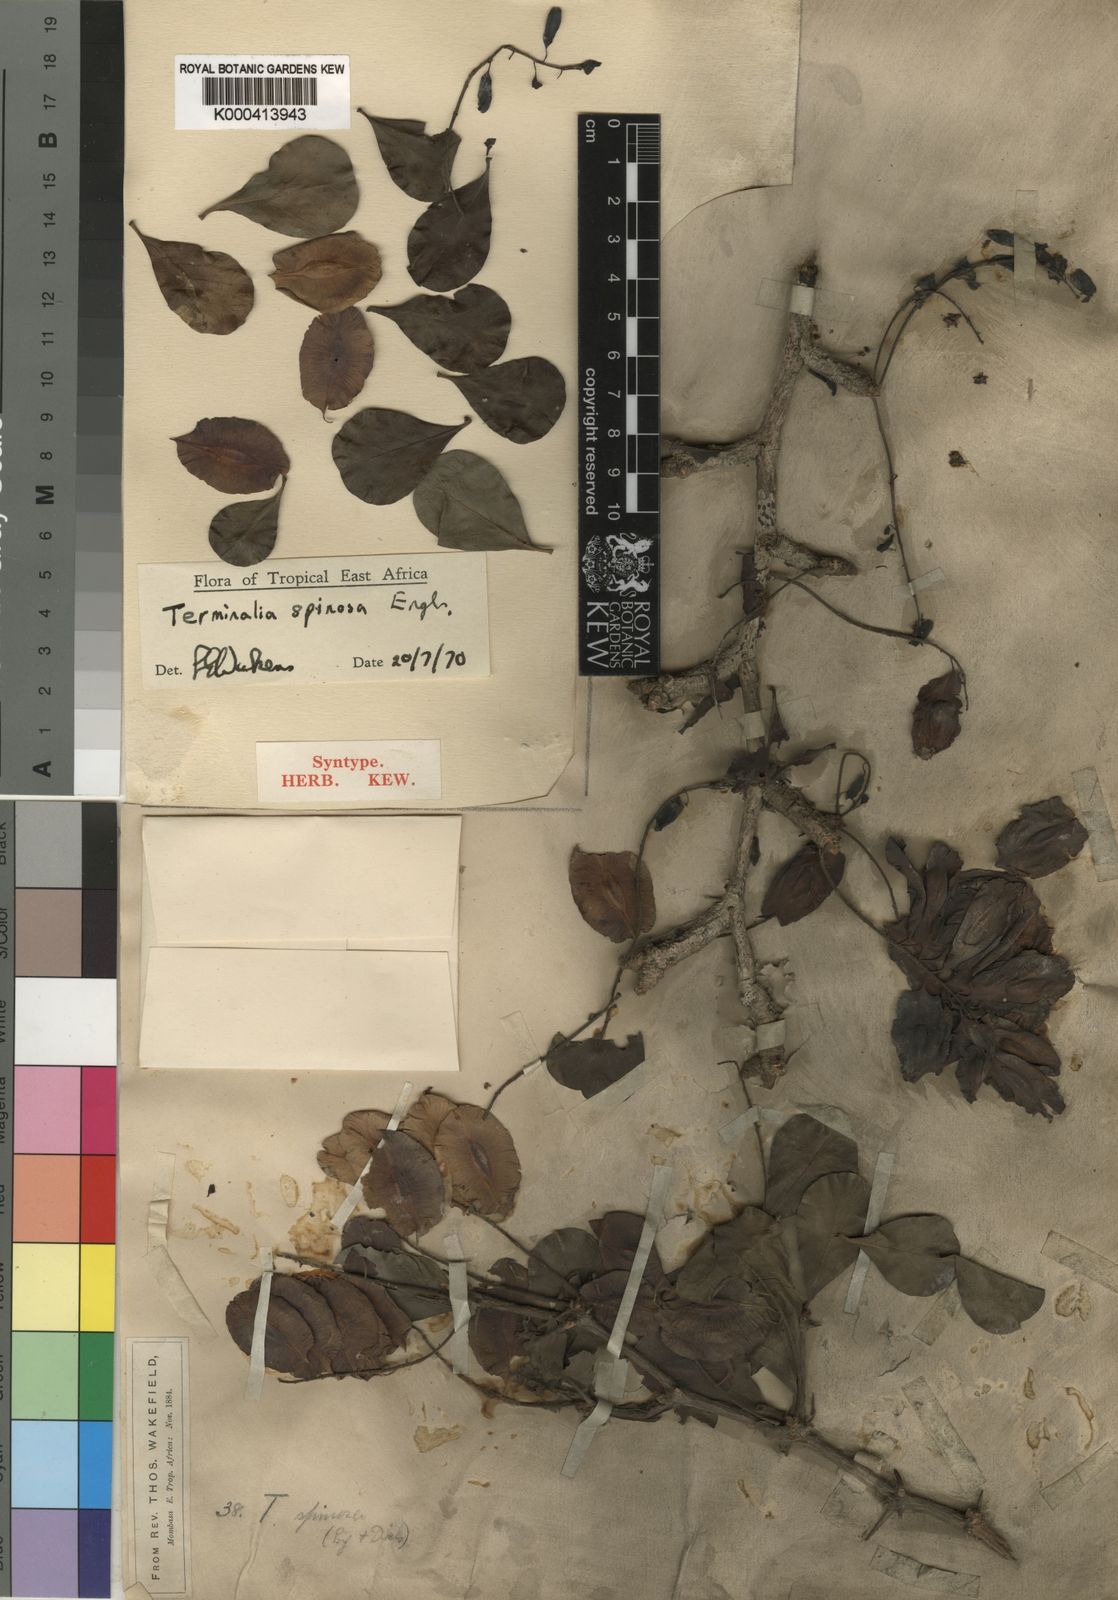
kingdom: Plantae
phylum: Tracheophyta
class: Magnoliopsida
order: Myrtales
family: Combretaceae
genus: Terminalia
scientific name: Terminalia spinosa
